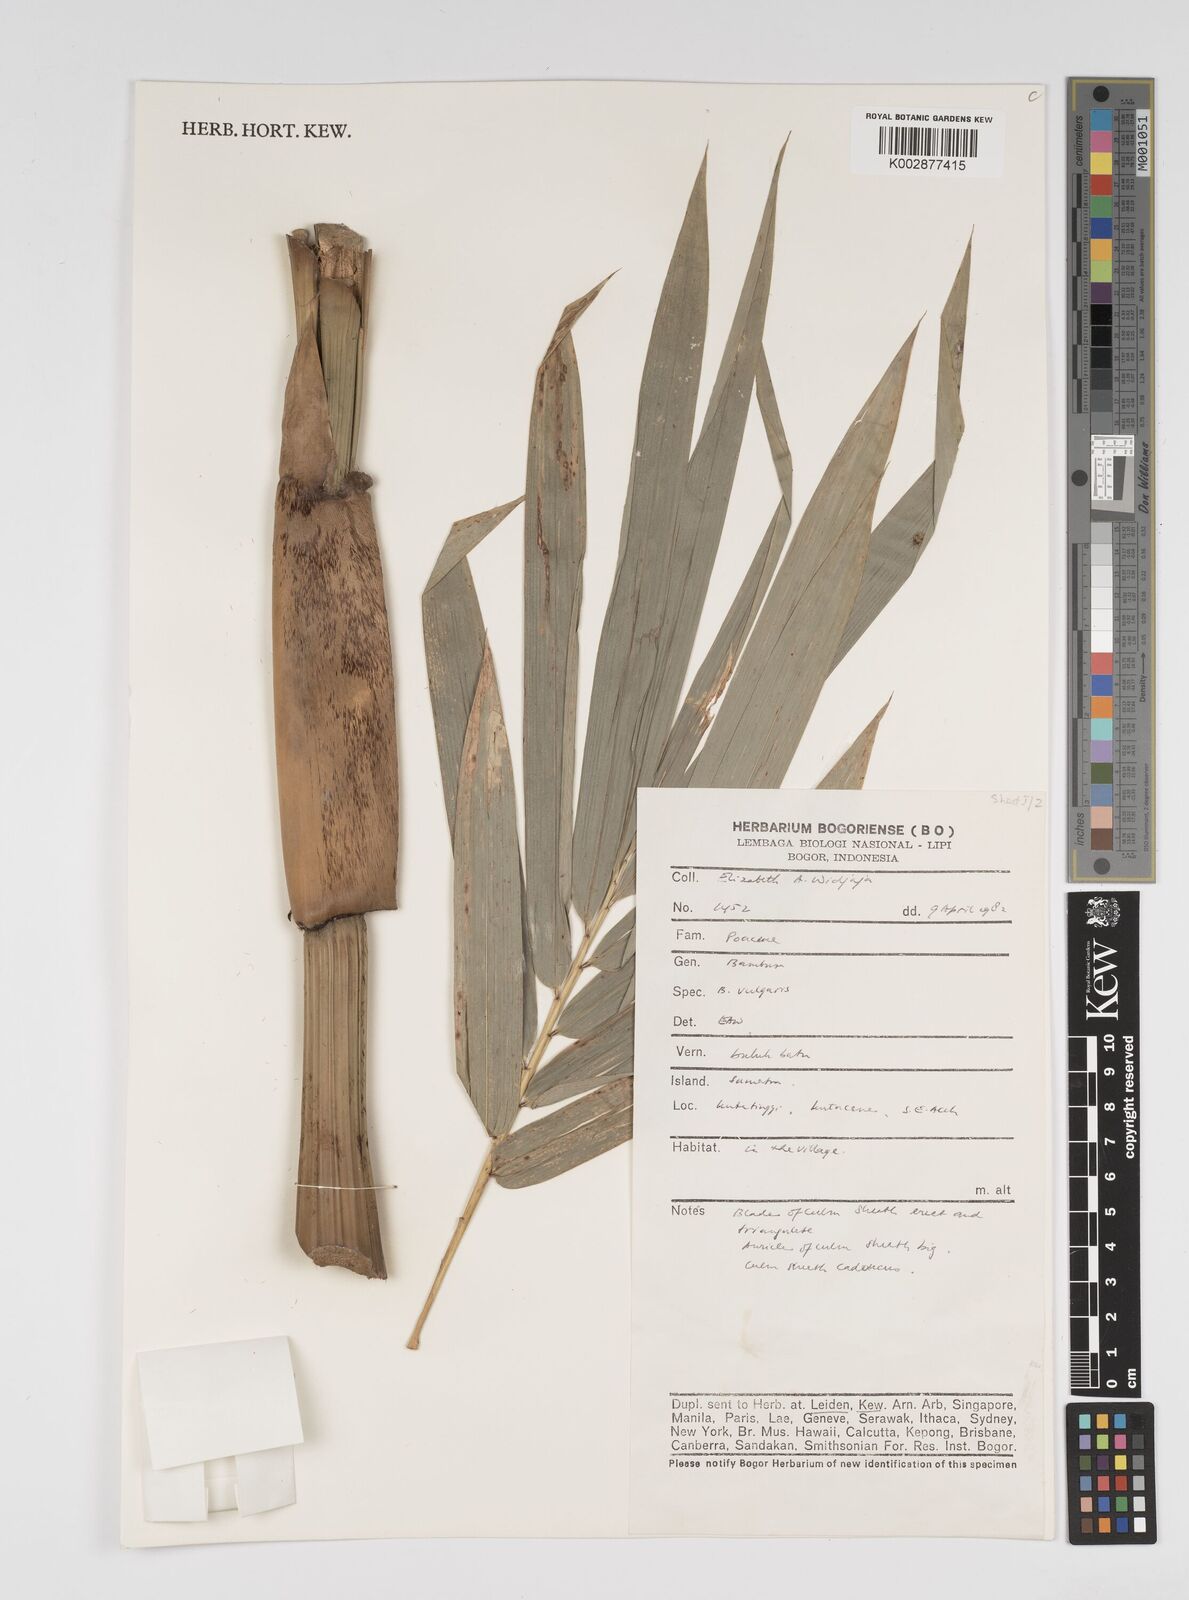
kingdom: Plantae
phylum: Tracheophyta
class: Liliopsida
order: Poales
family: Poaceae
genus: Bambusa
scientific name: Bambusa vulgaris
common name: Common bamboo
